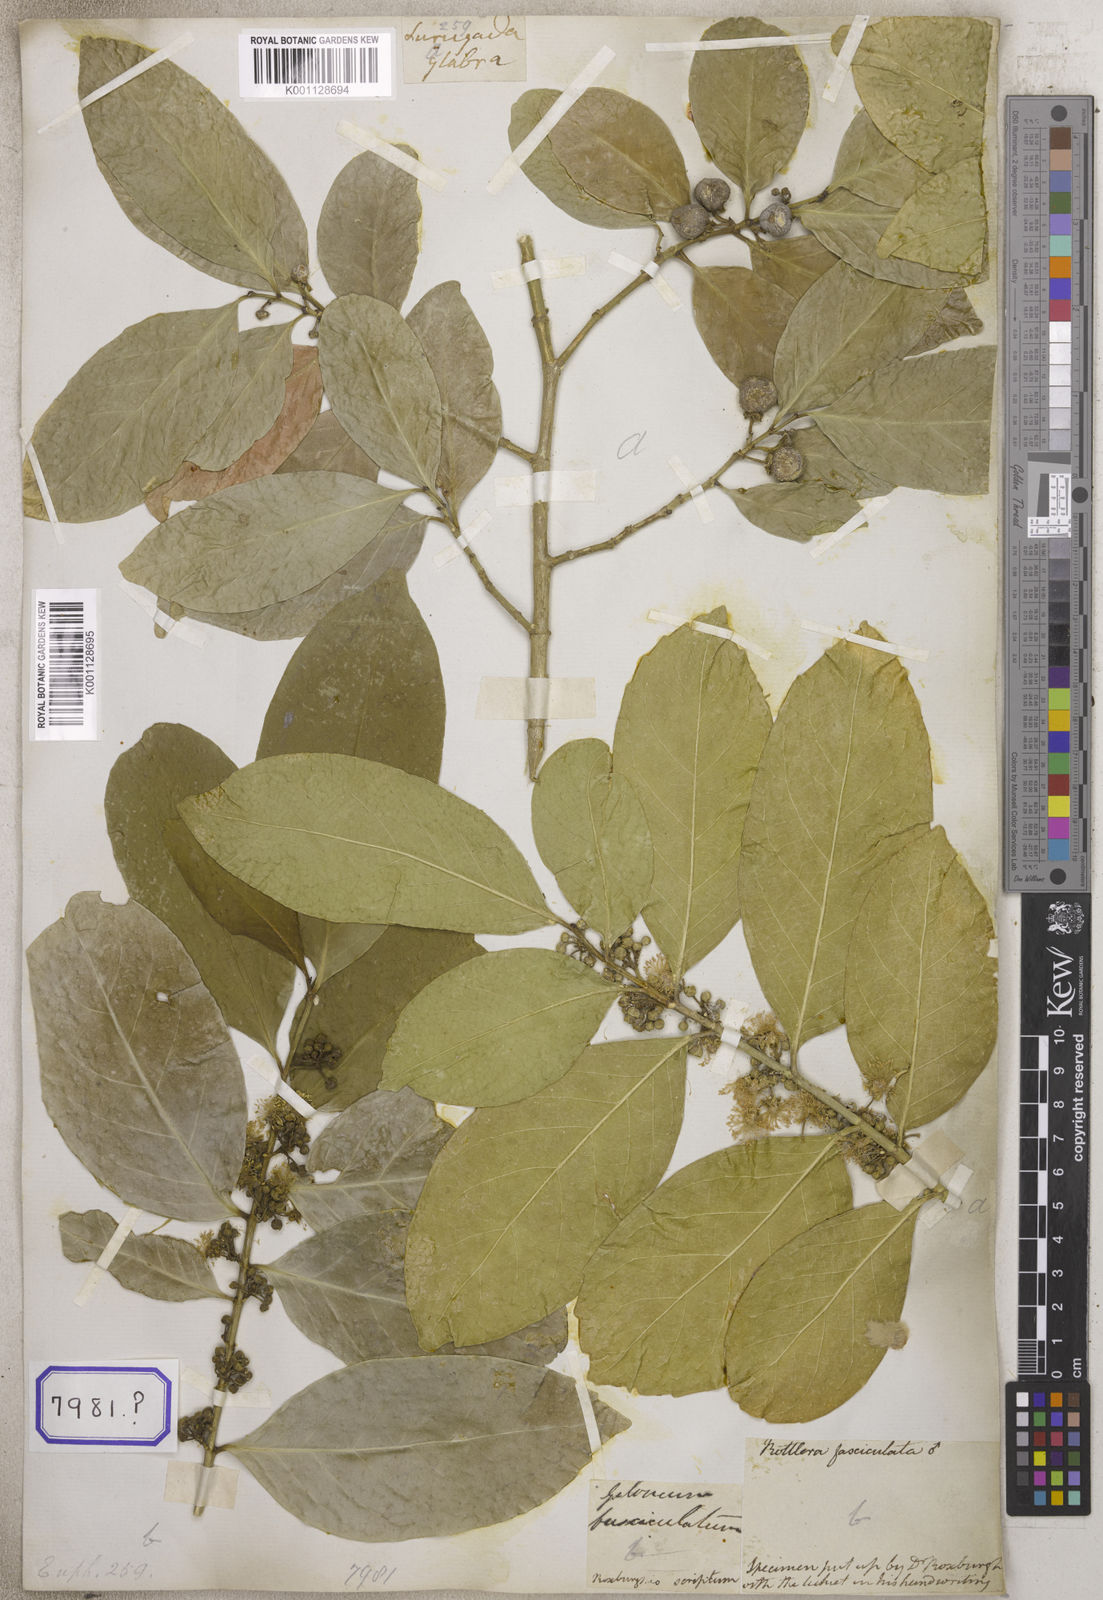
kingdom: Plantae
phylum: Tracheophyta
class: Magnoliopsida
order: Malpighiales
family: Euphorbiaceae
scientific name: Euphorbiaceae
